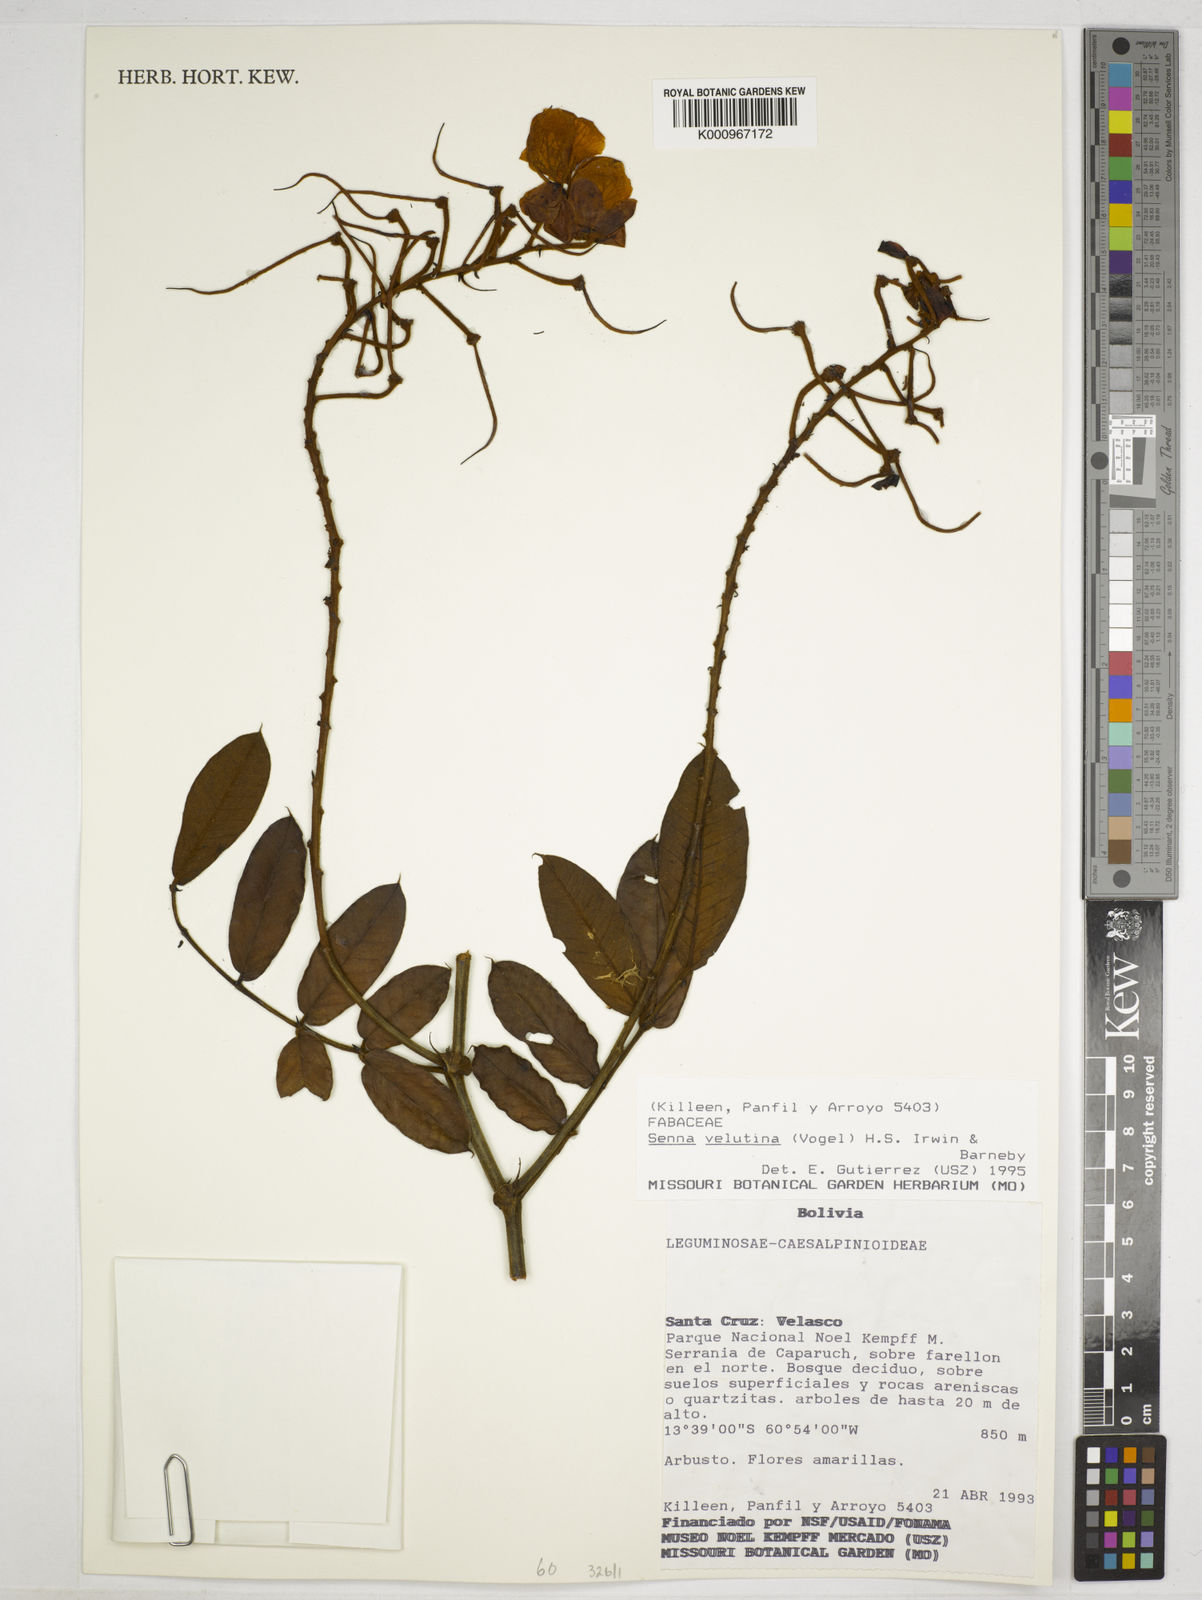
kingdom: Plantae
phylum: Tracheophyta
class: Magnoliopsida
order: Fabales
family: Fabaceae
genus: Senna
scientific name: Senna velutina
